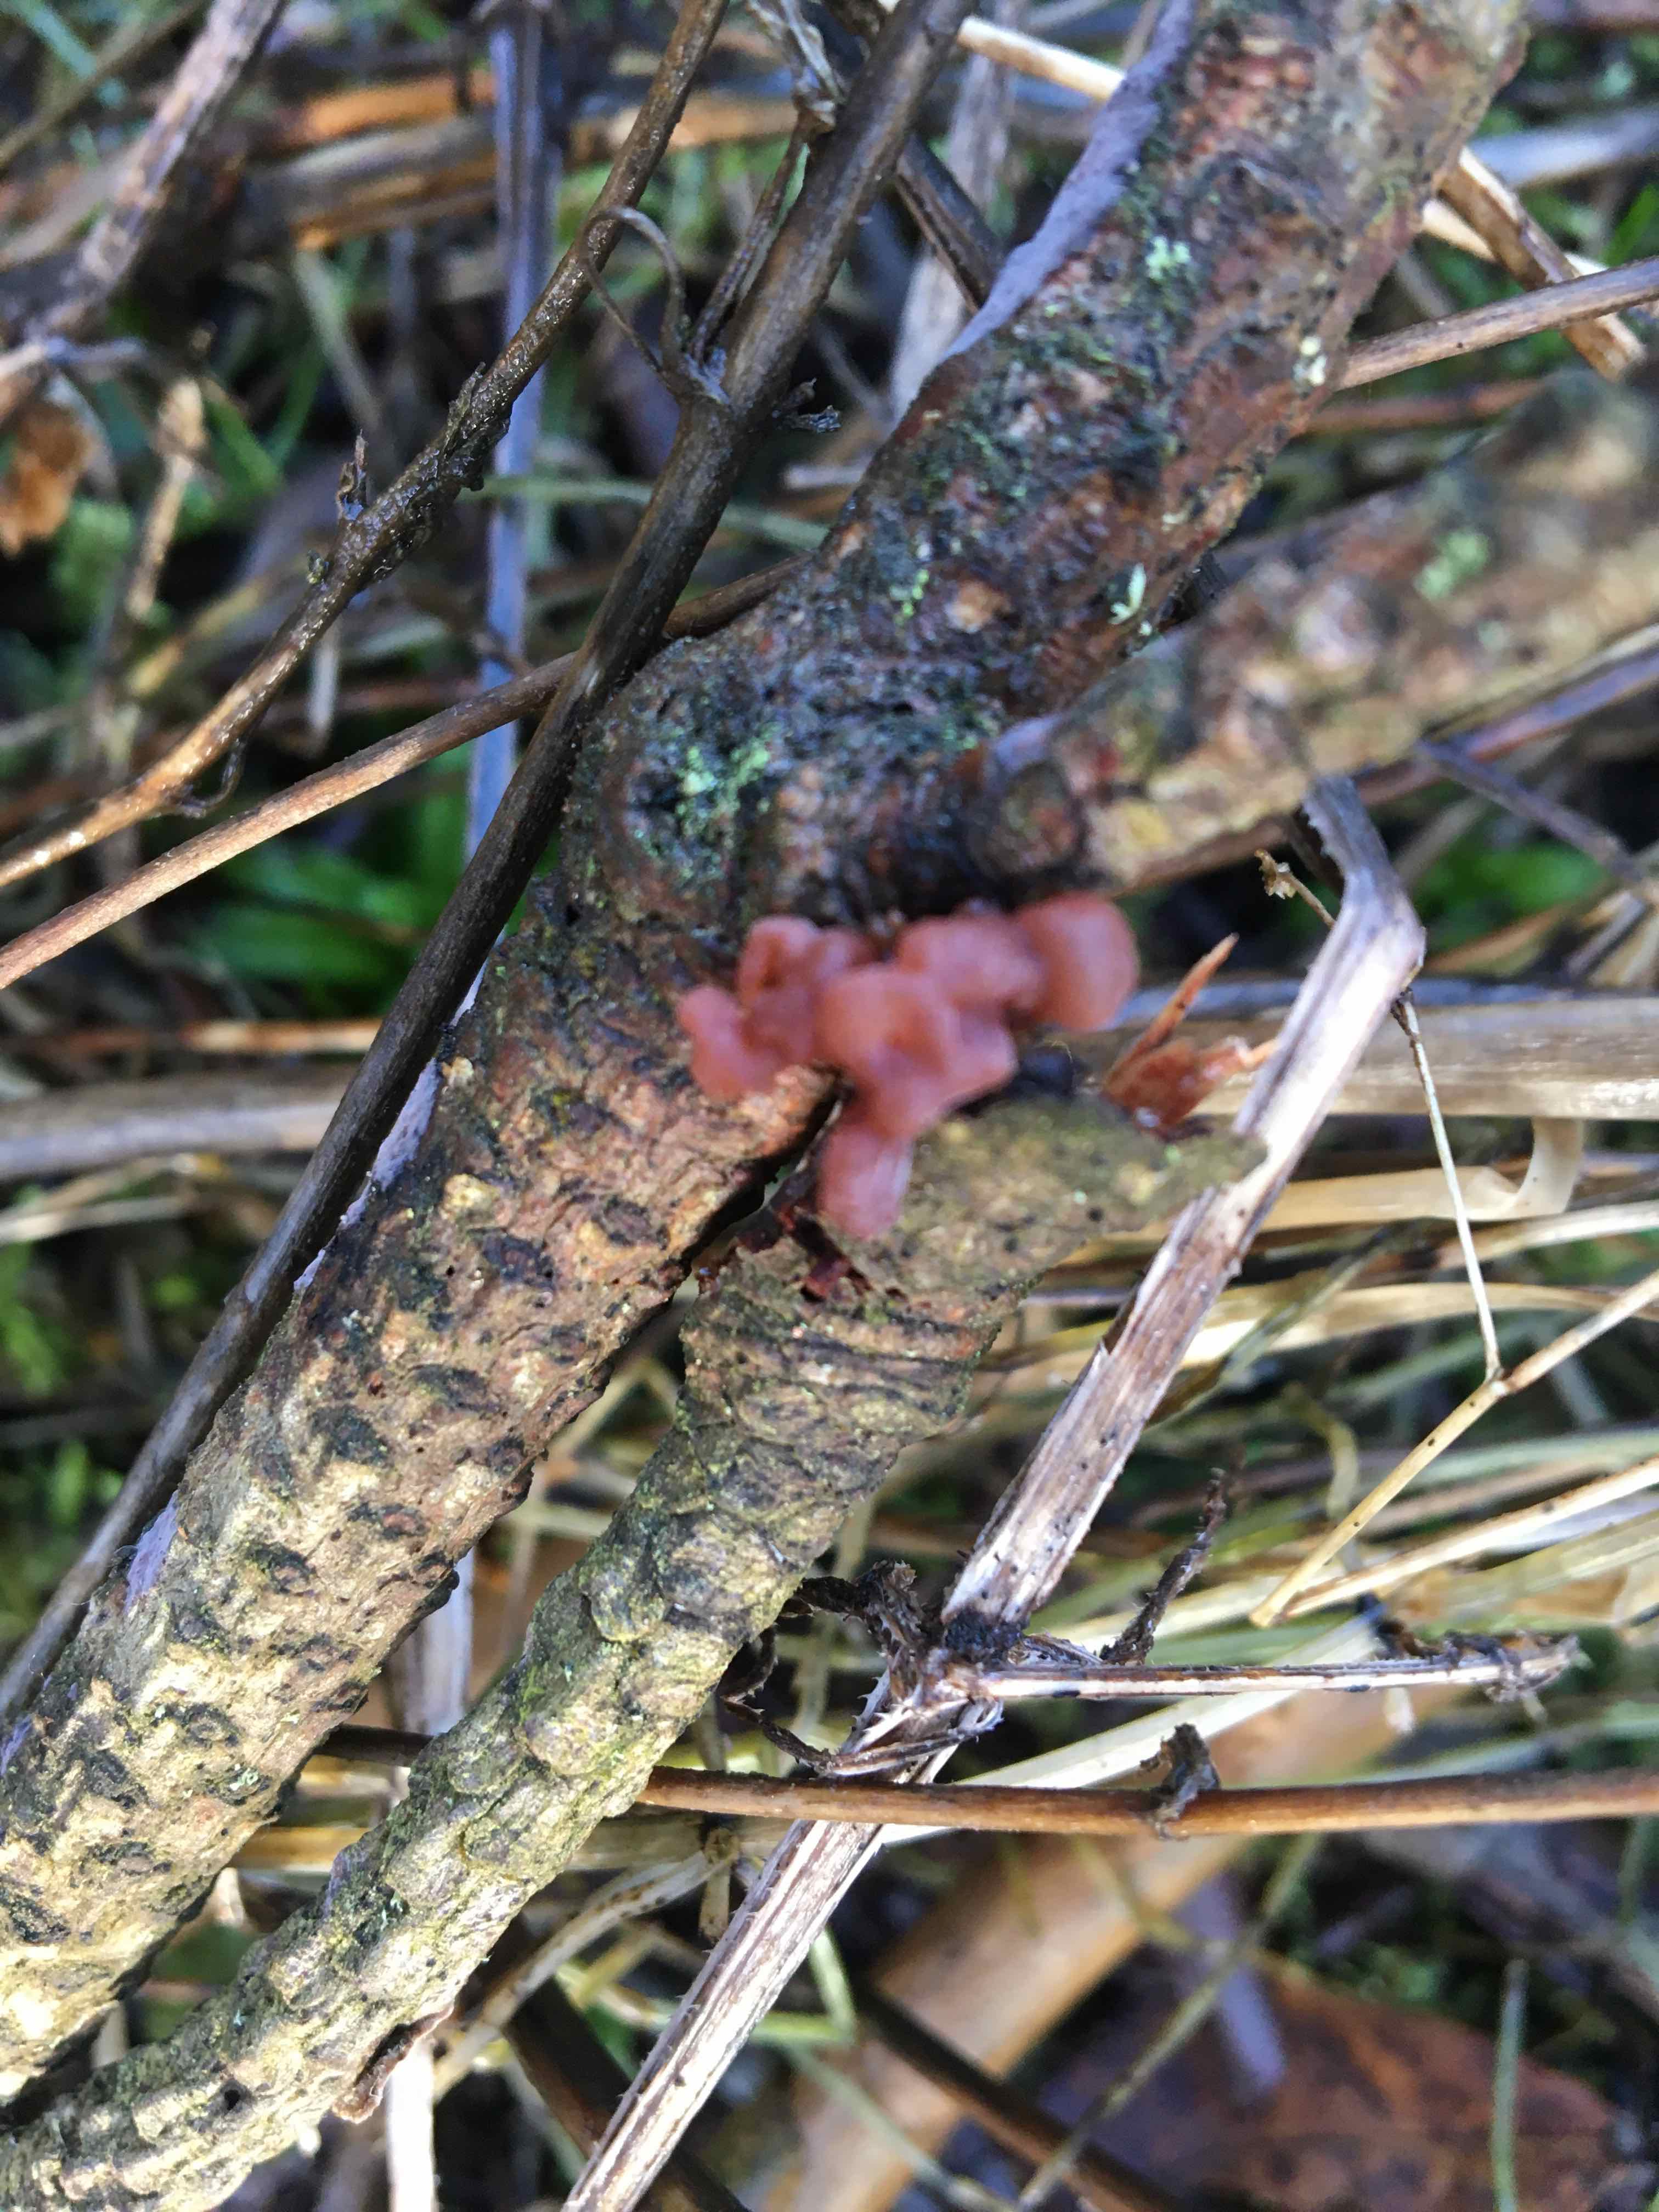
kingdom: Fungi
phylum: Basidiomycota
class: Tremellomycetes
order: Tremellales
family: Tremellaceae
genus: Phaeotremella
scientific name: Phaeotremella foliacea
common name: brun bævresvamp
